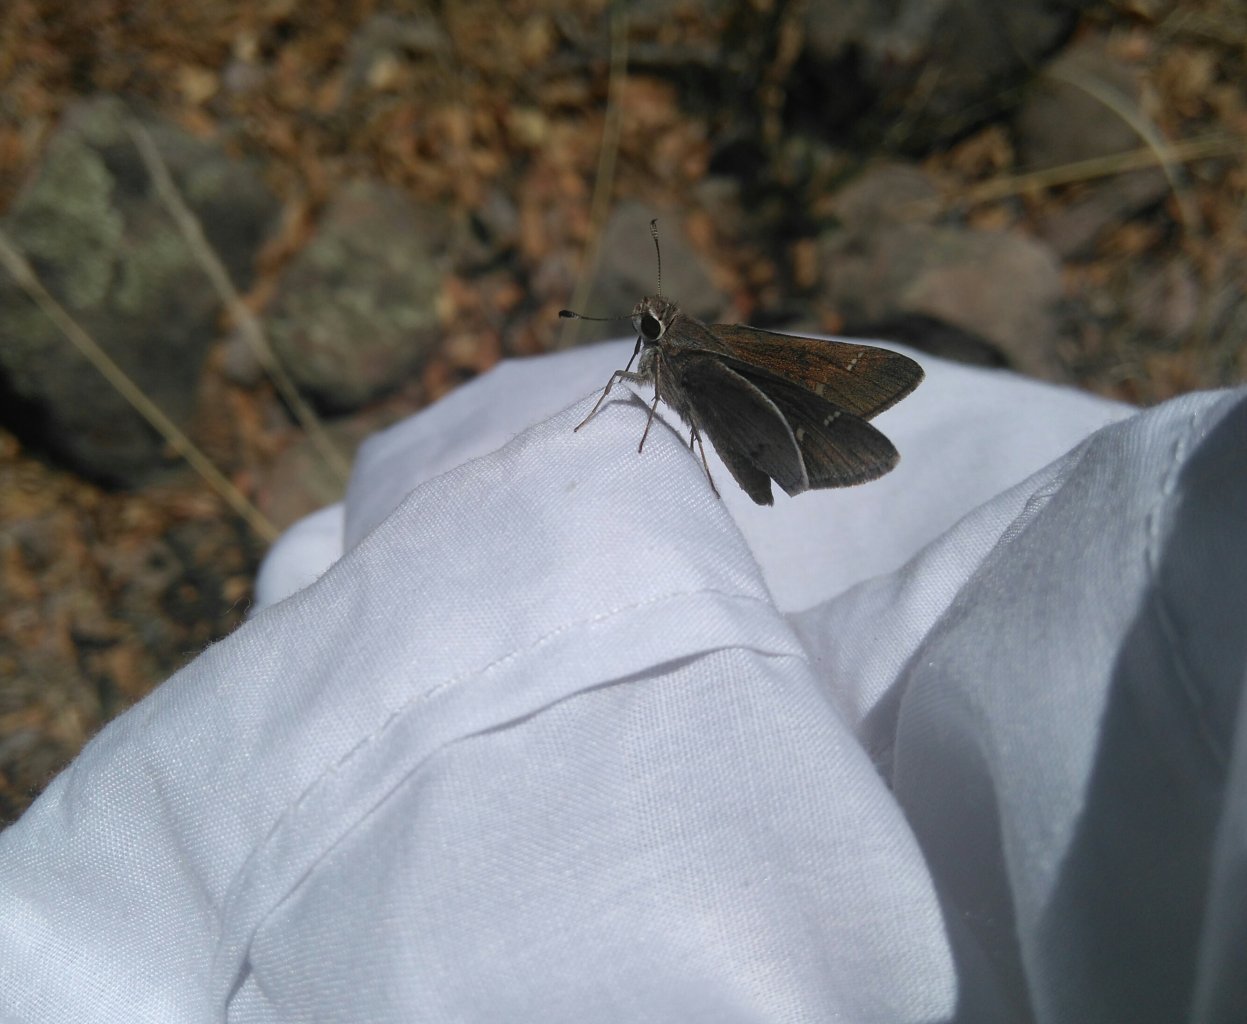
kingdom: Animalia
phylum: Arthropoda
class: Insecta
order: Lepidoptera
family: Hesperiidae
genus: Atrytonopsis
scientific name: Atrytonopsis deva
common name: Deva Skipper
